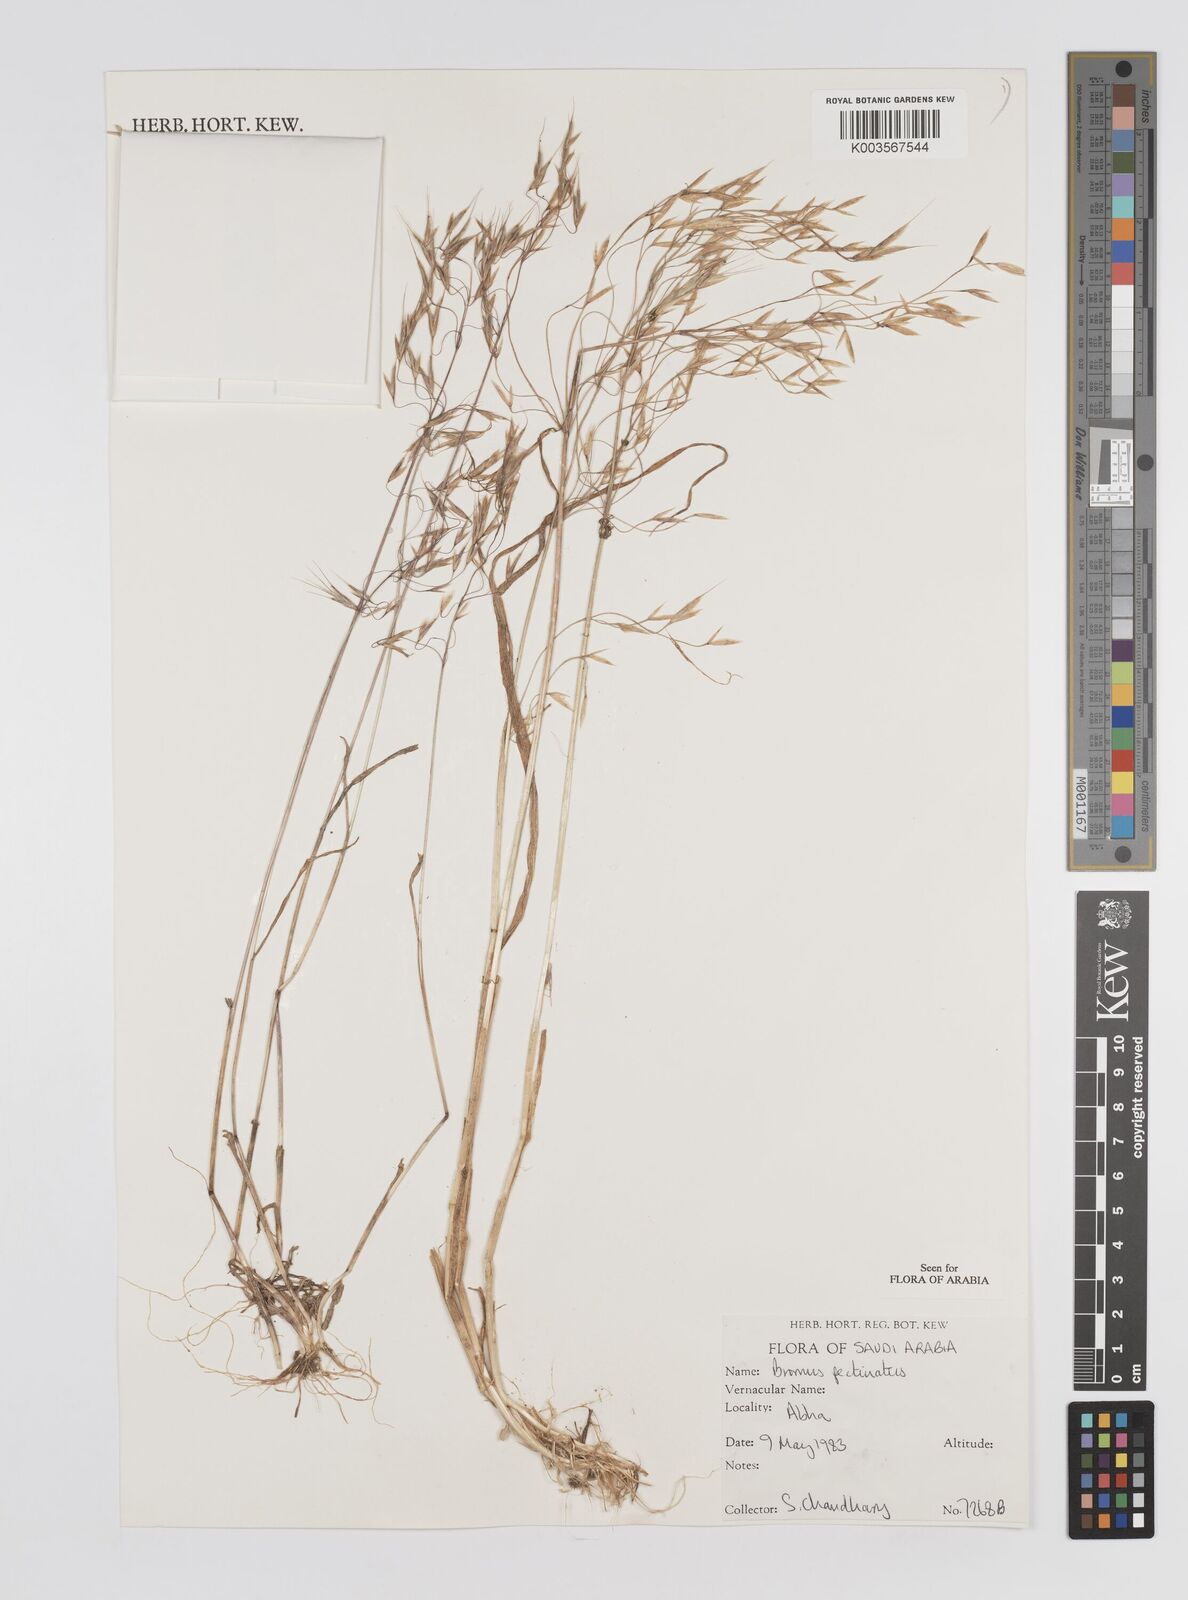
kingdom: Plantae
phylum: Tracheophyta
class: Liliopsida
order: Poales
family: Poaceae
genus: Bromus
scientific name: Bromus pectinatus
